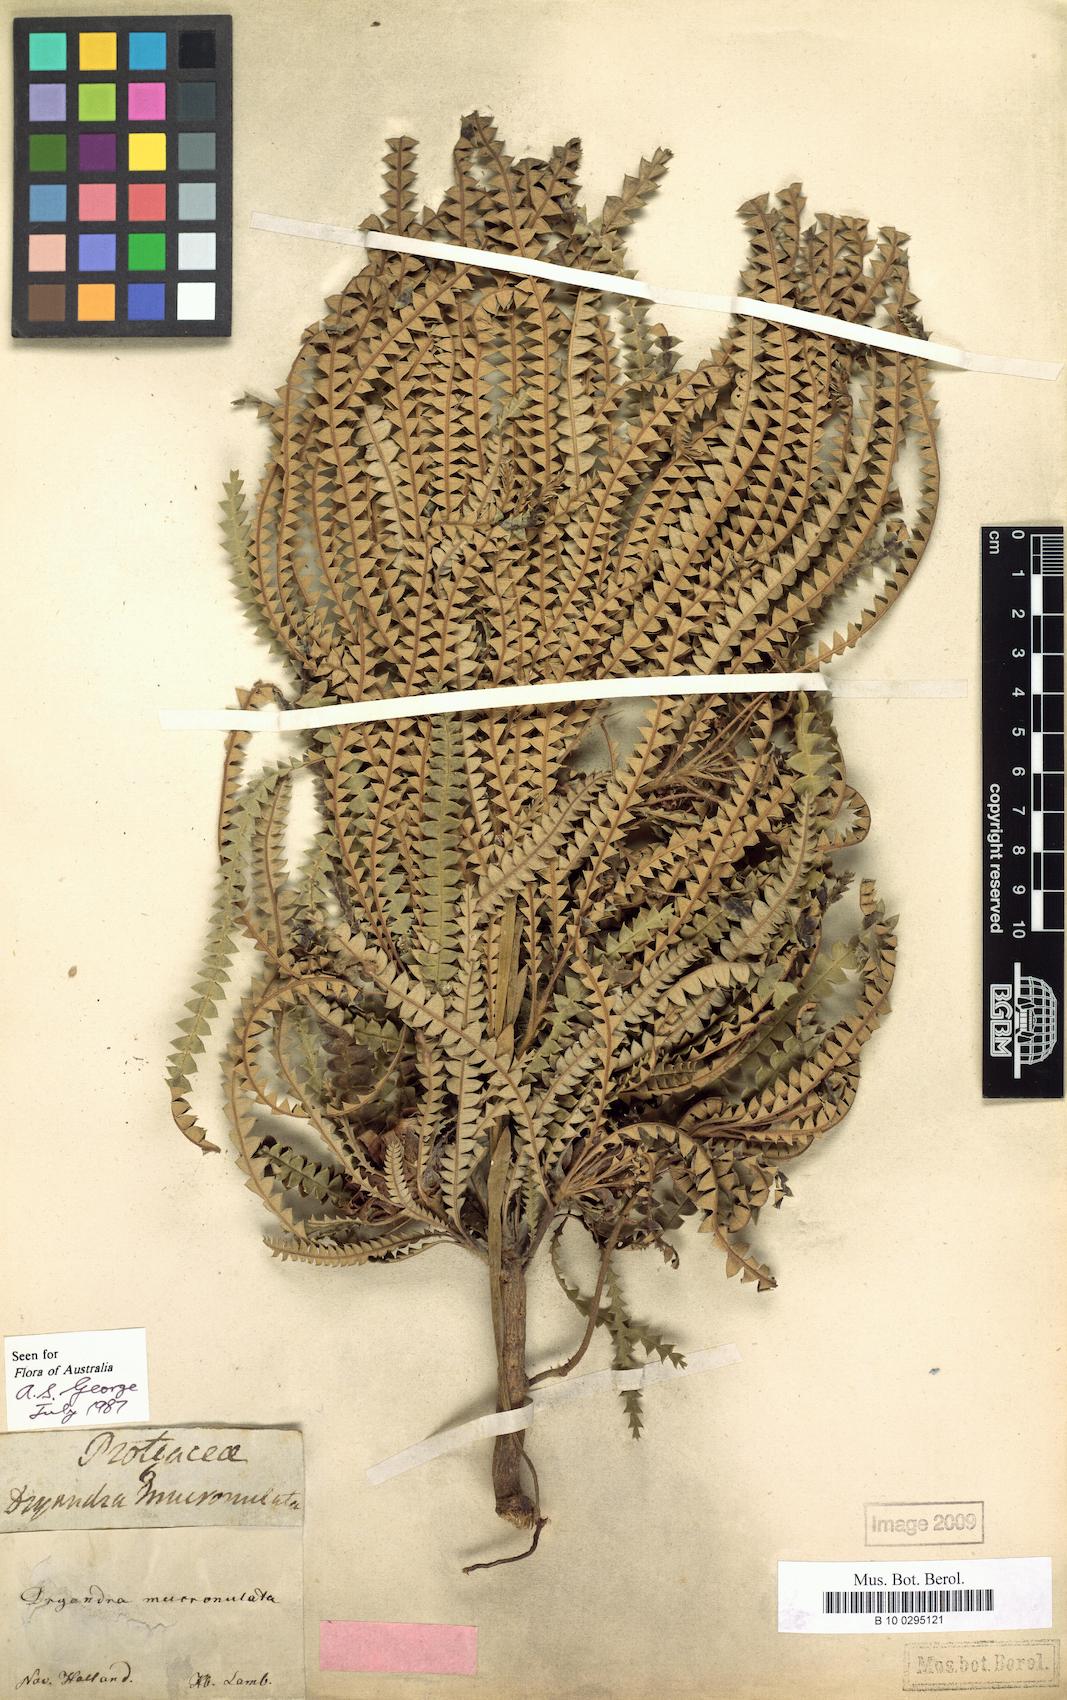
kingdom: Plantae
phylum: Tracheophyta
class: Magnoliopsida
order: Proteales
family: Proteaceae
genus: Banksia
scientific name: Banksia mucronulata
